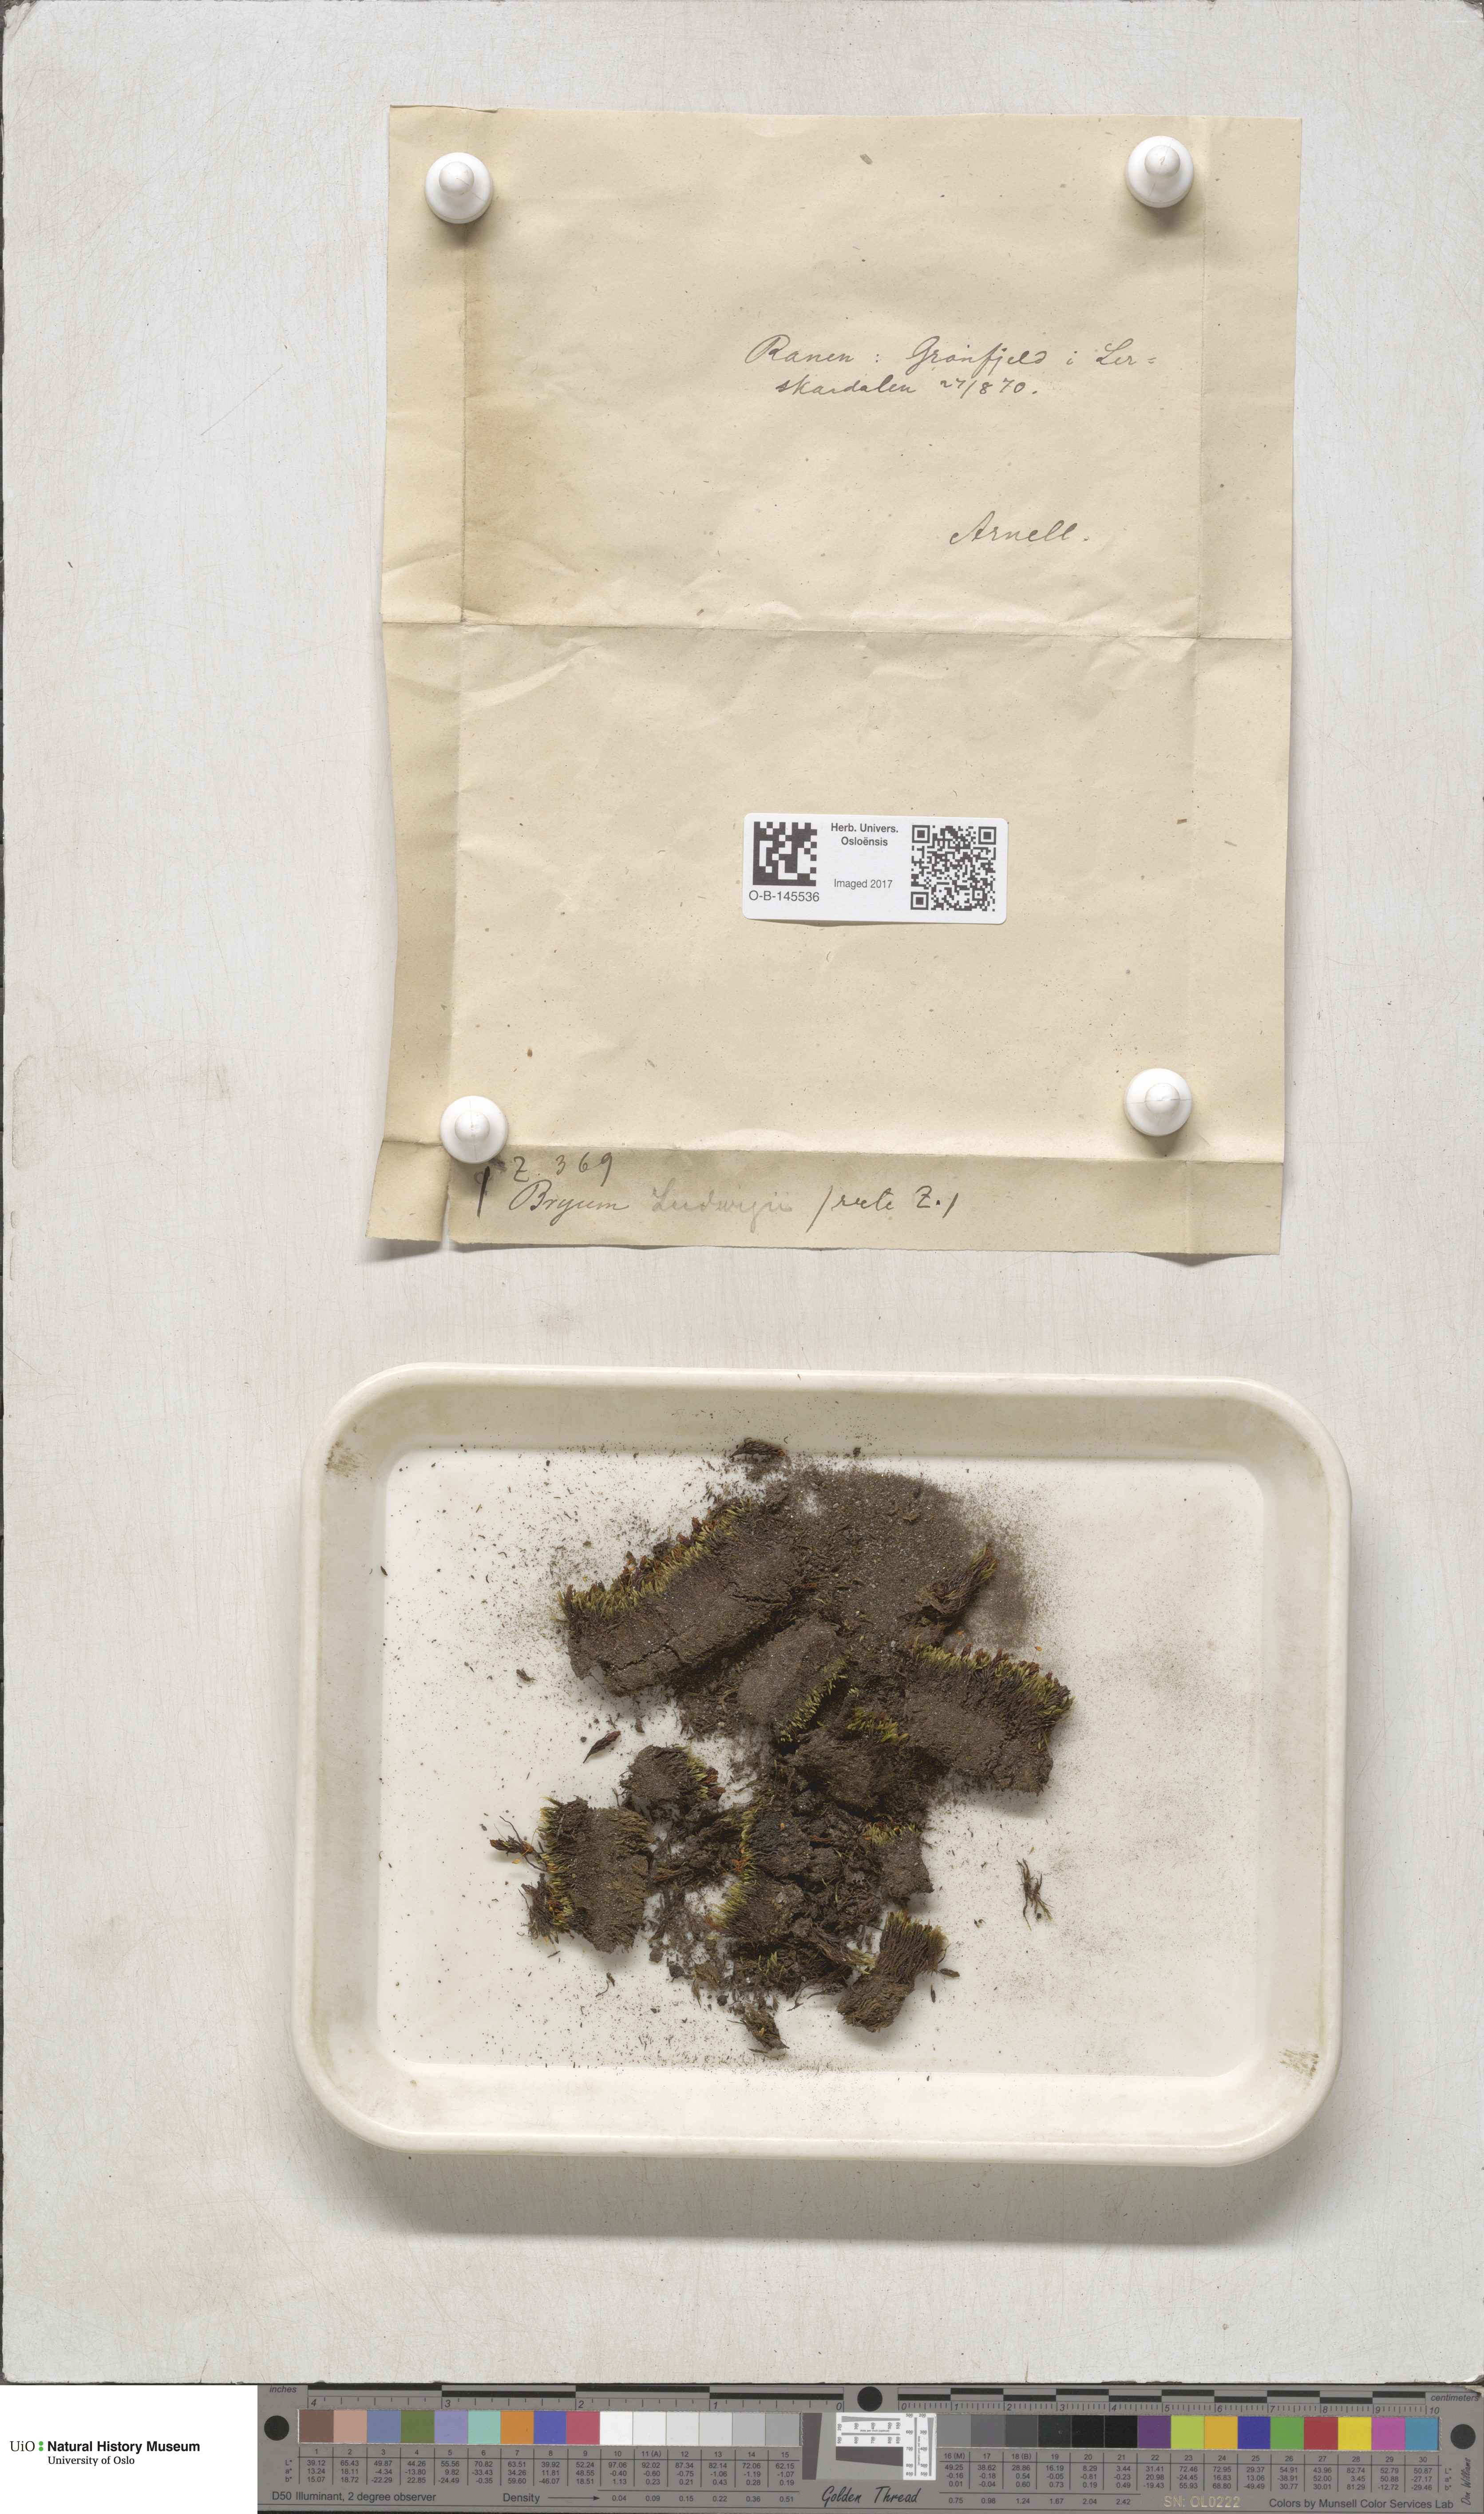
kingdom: Plantae
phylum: Bryophyta
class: Bryopsida
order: Bryales
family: Mniaceae
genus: Pohlia
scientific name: Pohlia ludwigii
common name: Ludwig's thread-moss
